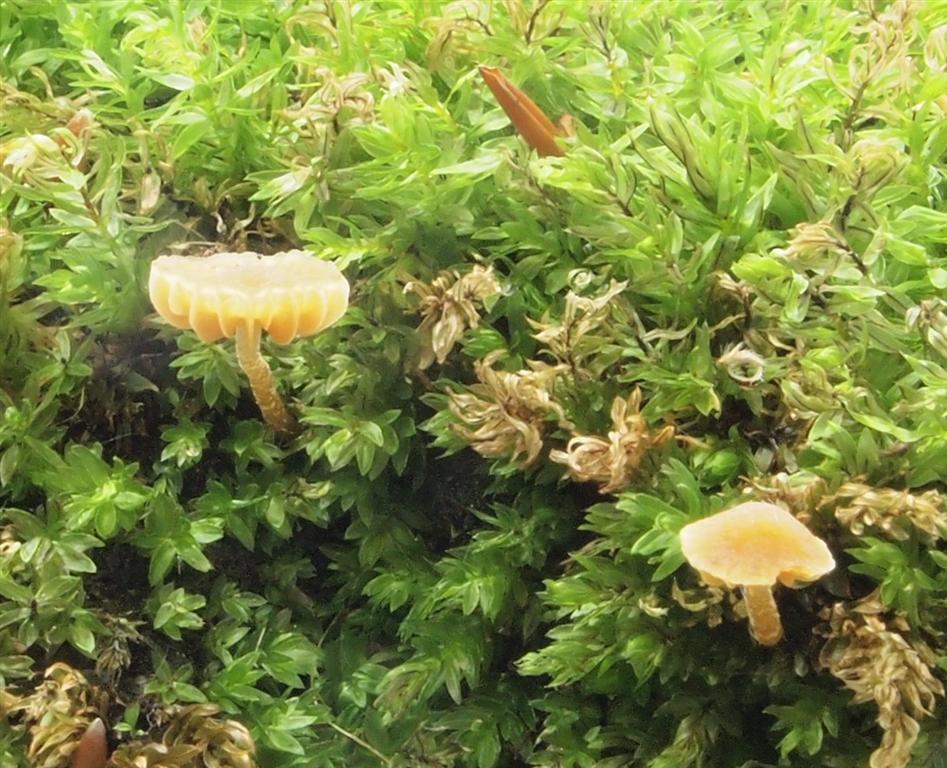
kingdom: Fungi
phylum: Basidiomycota
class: Agaricomycetes
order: Agaricales
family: Hymenogastraceae
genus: Galerina
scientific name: Galerina hypnorum
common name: mos-hjelmhat
